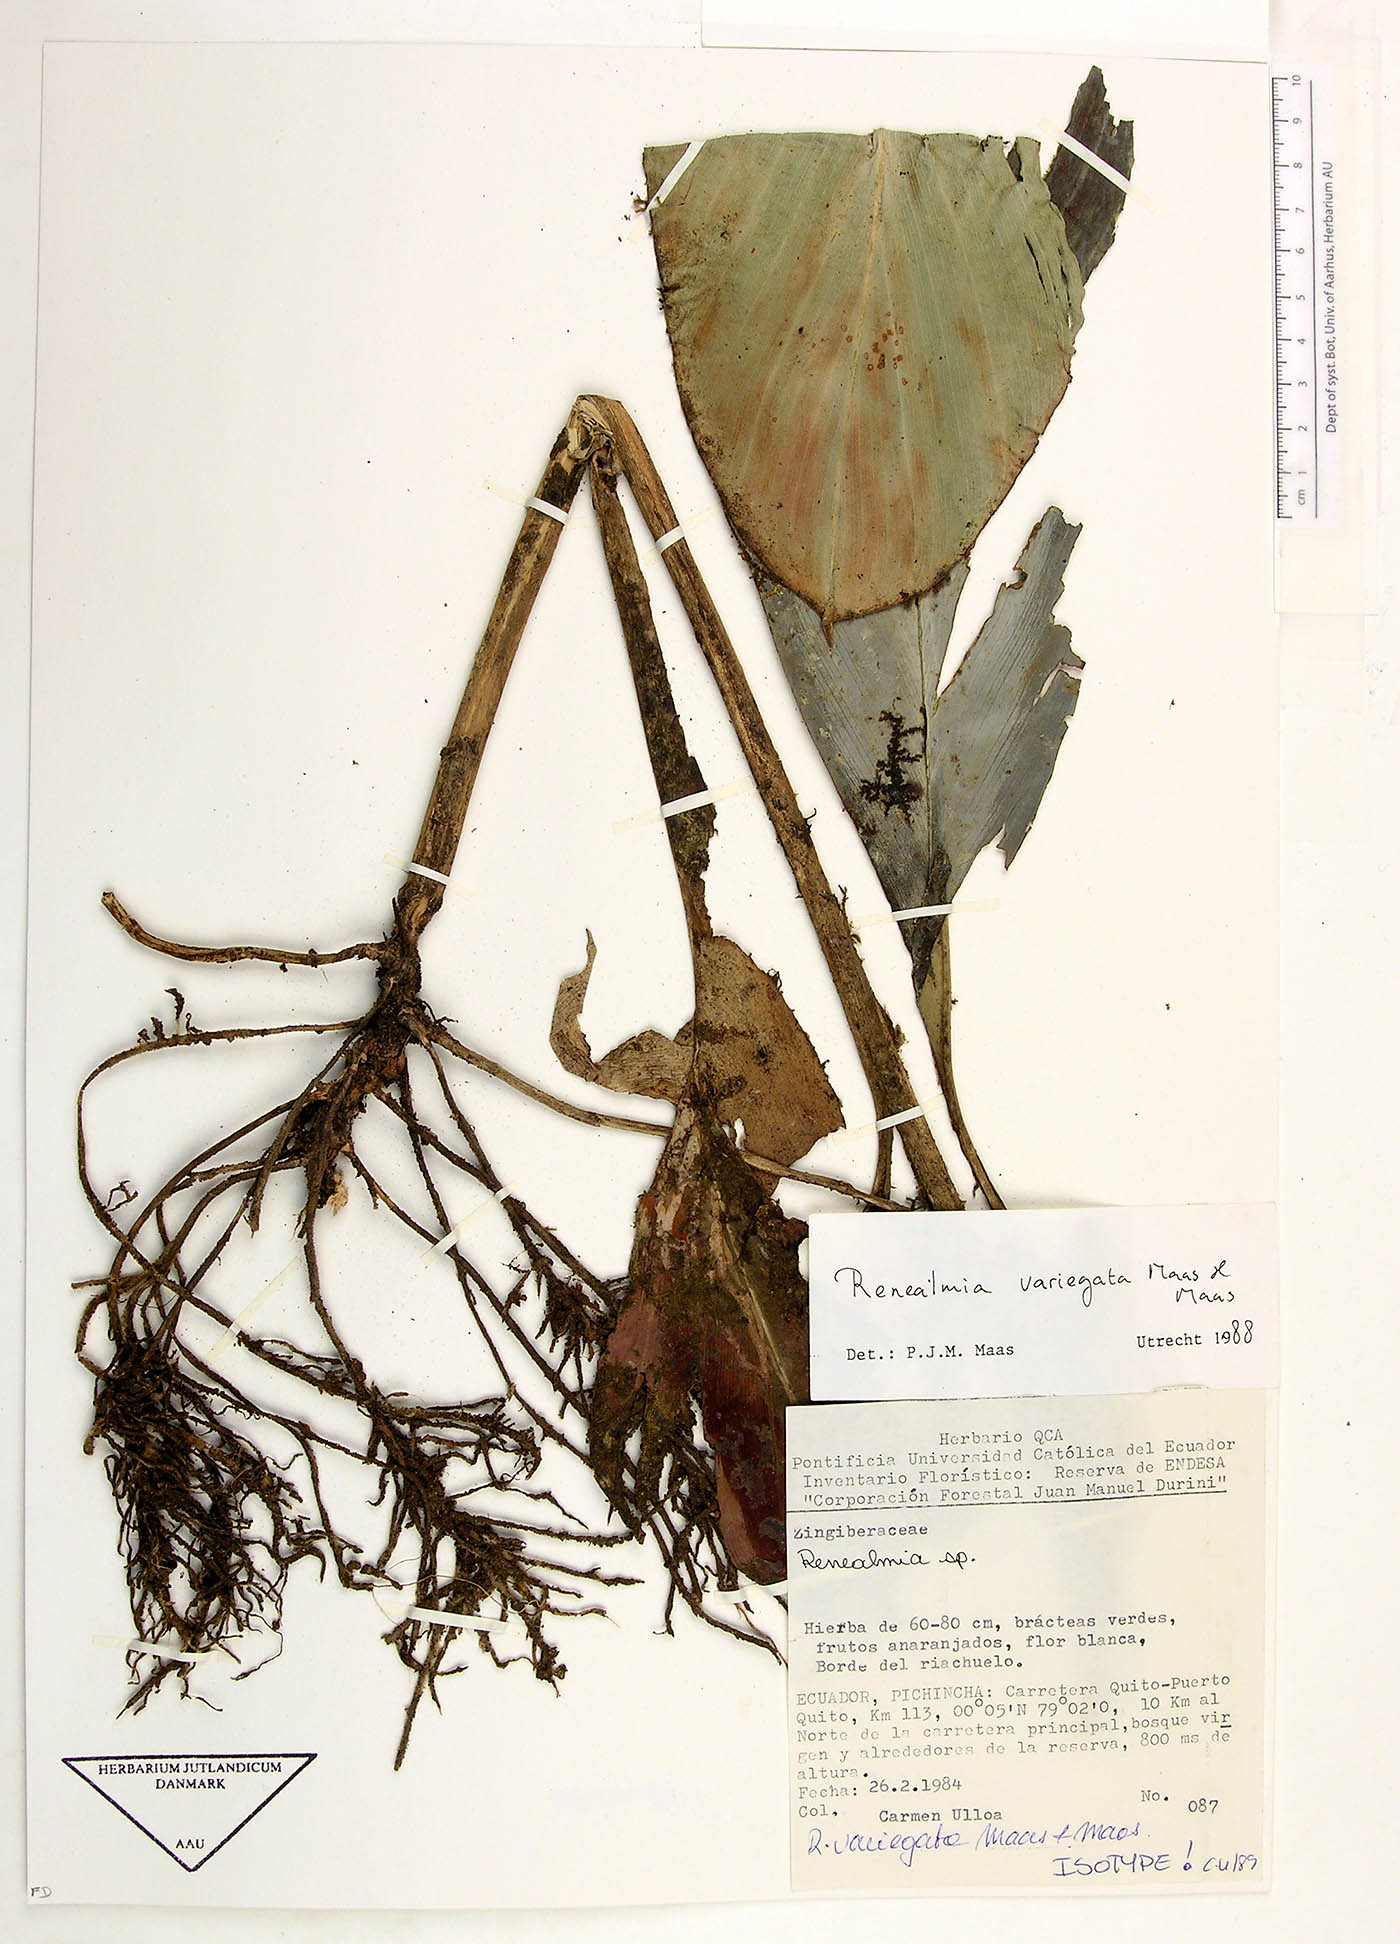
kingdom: Plantae
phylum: Tracheophyta
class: Liliopsida
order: Zingiberales
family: Zingiberaceae
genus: Renealmia
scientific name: Renealmia variegata
